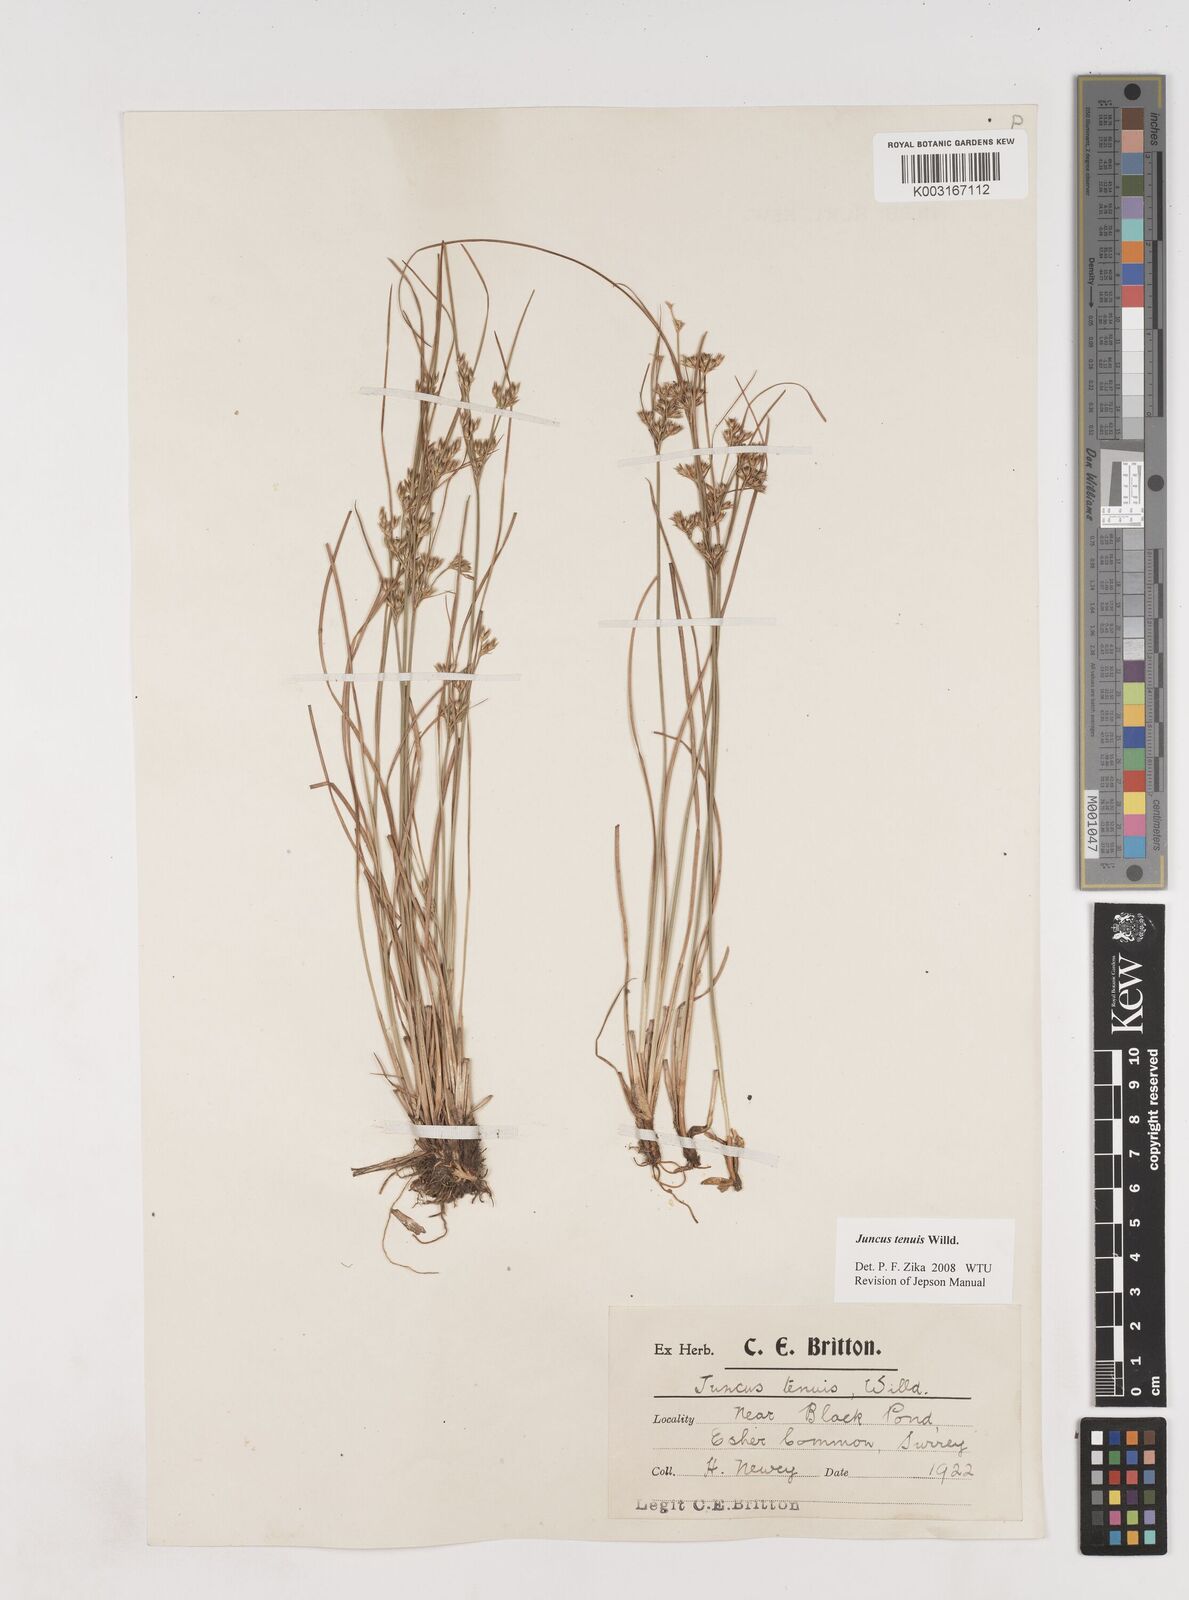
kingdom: Plantae
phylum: Tracheophyta
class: Liliopsida
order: Poales
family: Juncaceae
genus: Juncus
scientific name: Juncus occidentalis
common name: Western rush
